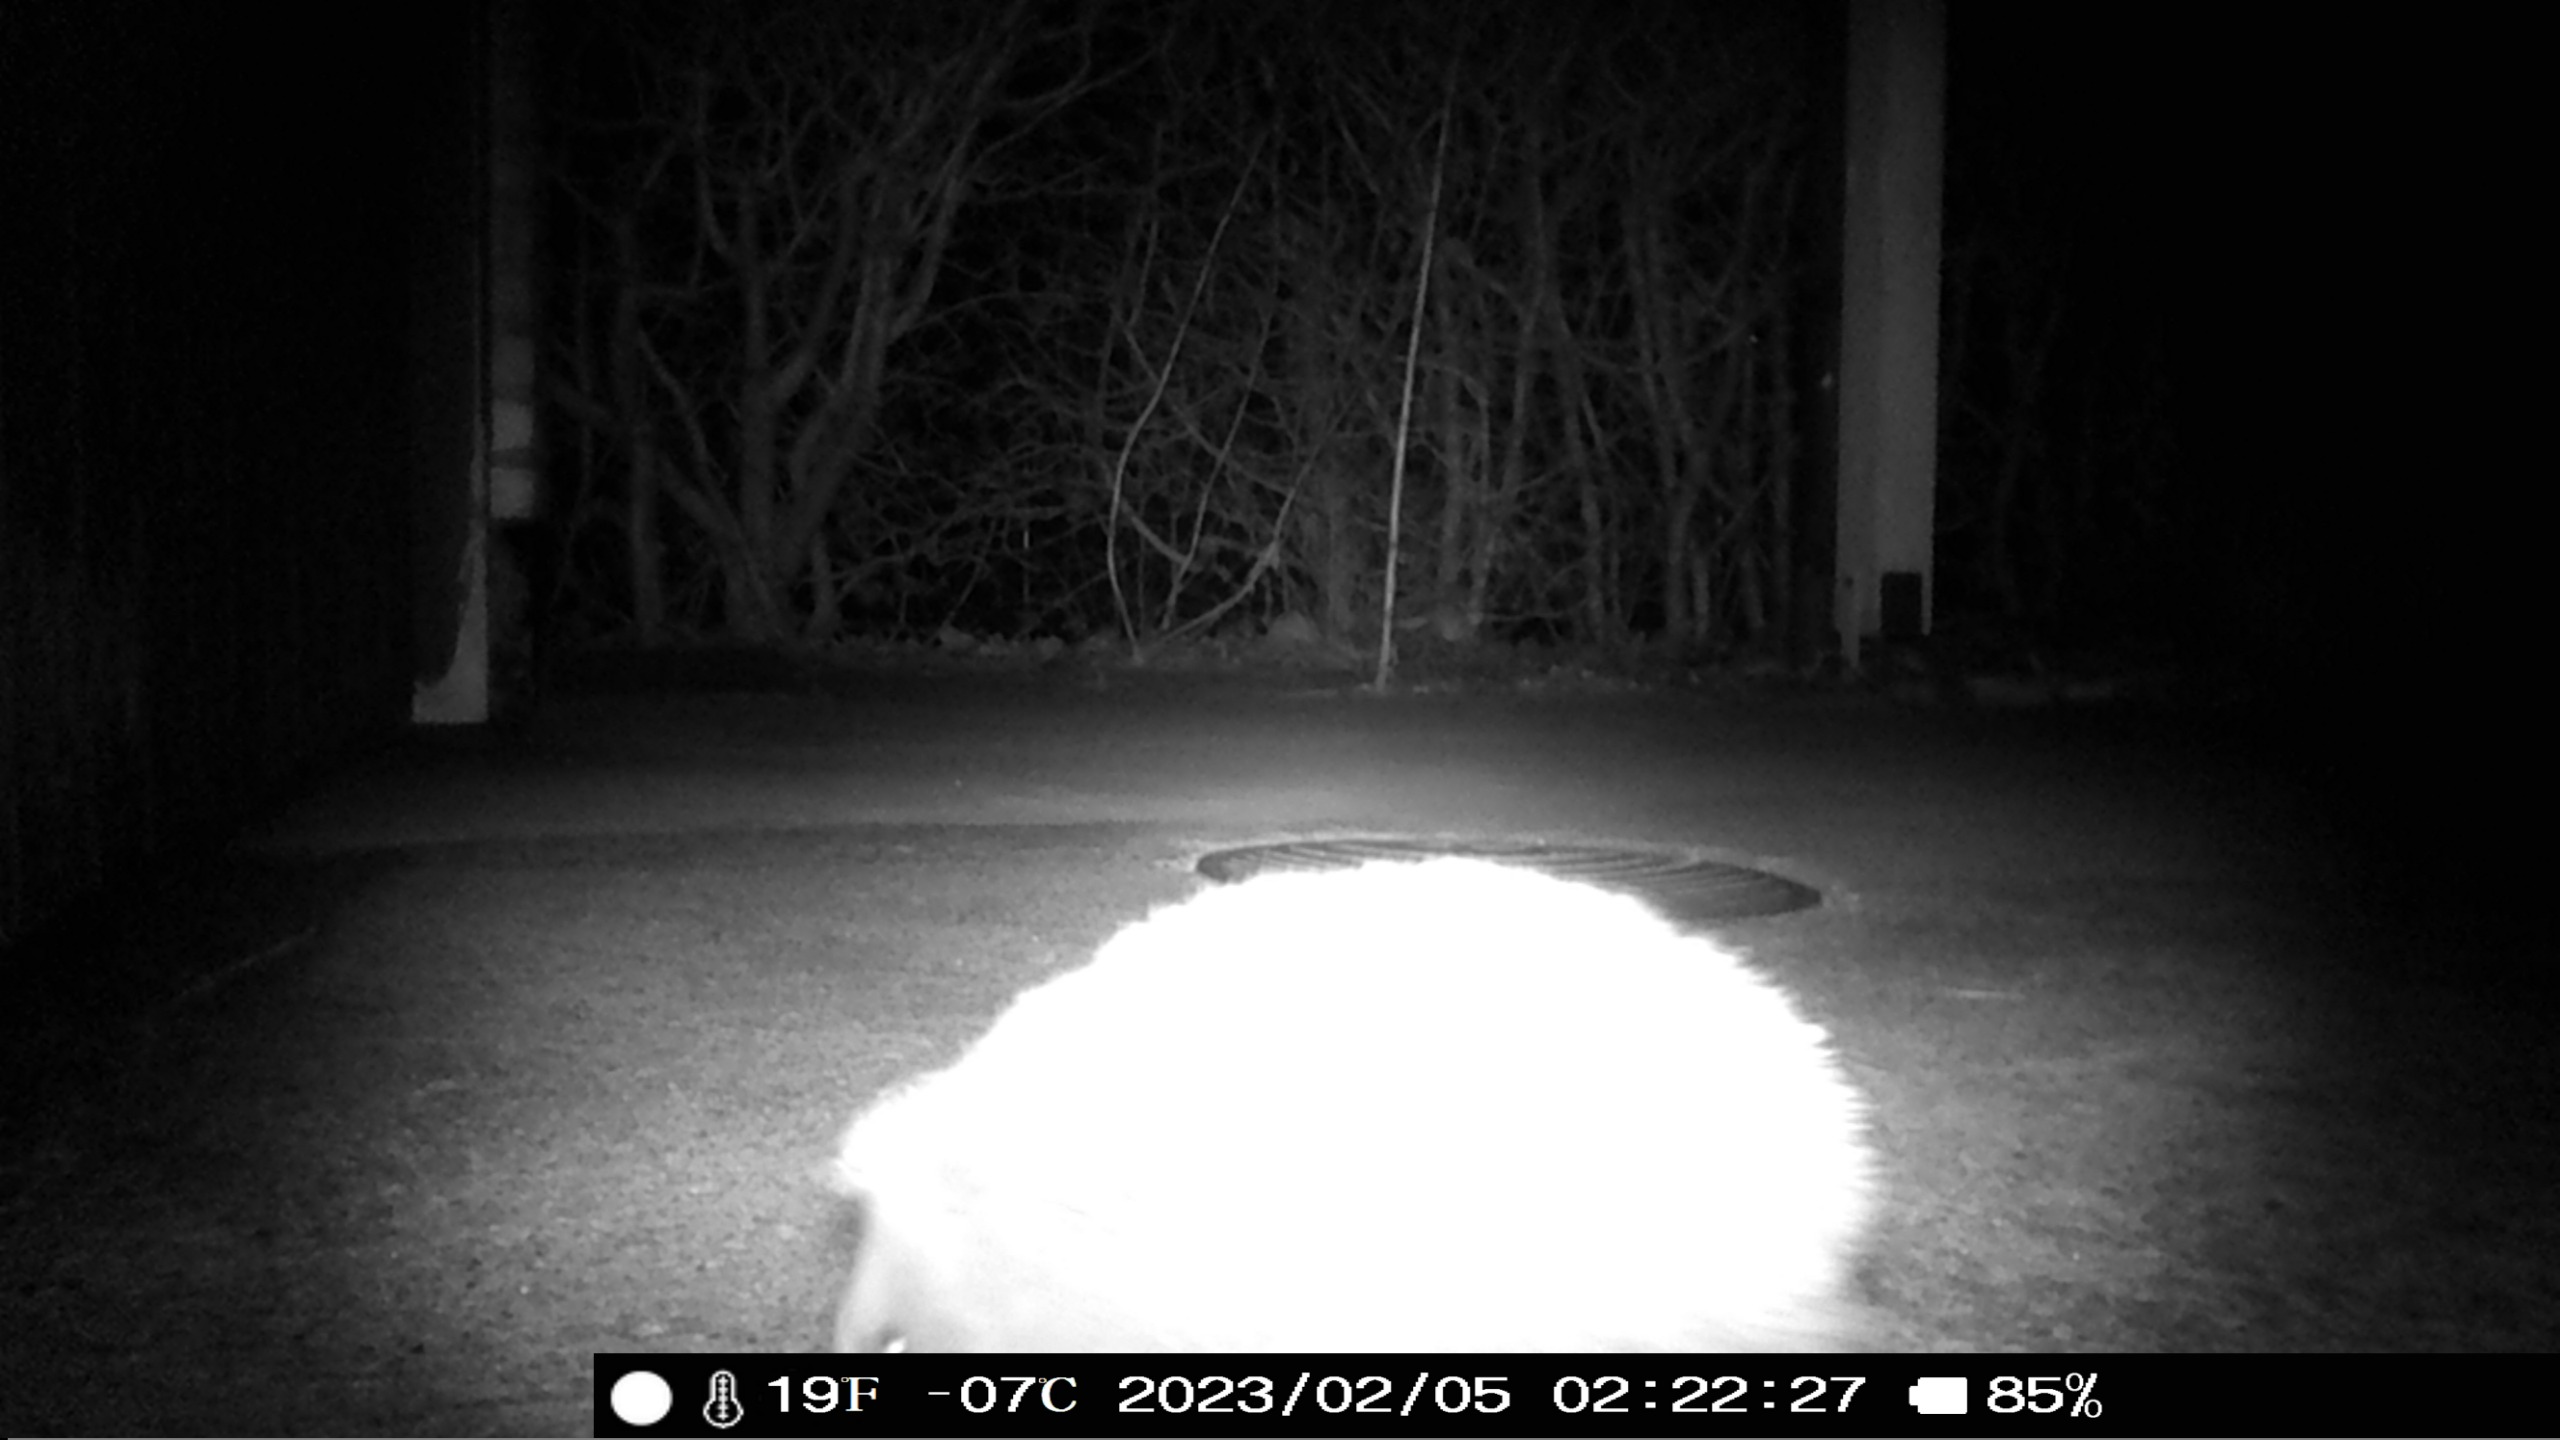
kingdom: Animalia
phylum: Chordata
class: Mammalia
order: Erinaceomorpha
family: Erinaceidae
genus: Erinaceus
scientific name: Erinaceus europaeus
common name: Pindsvin
